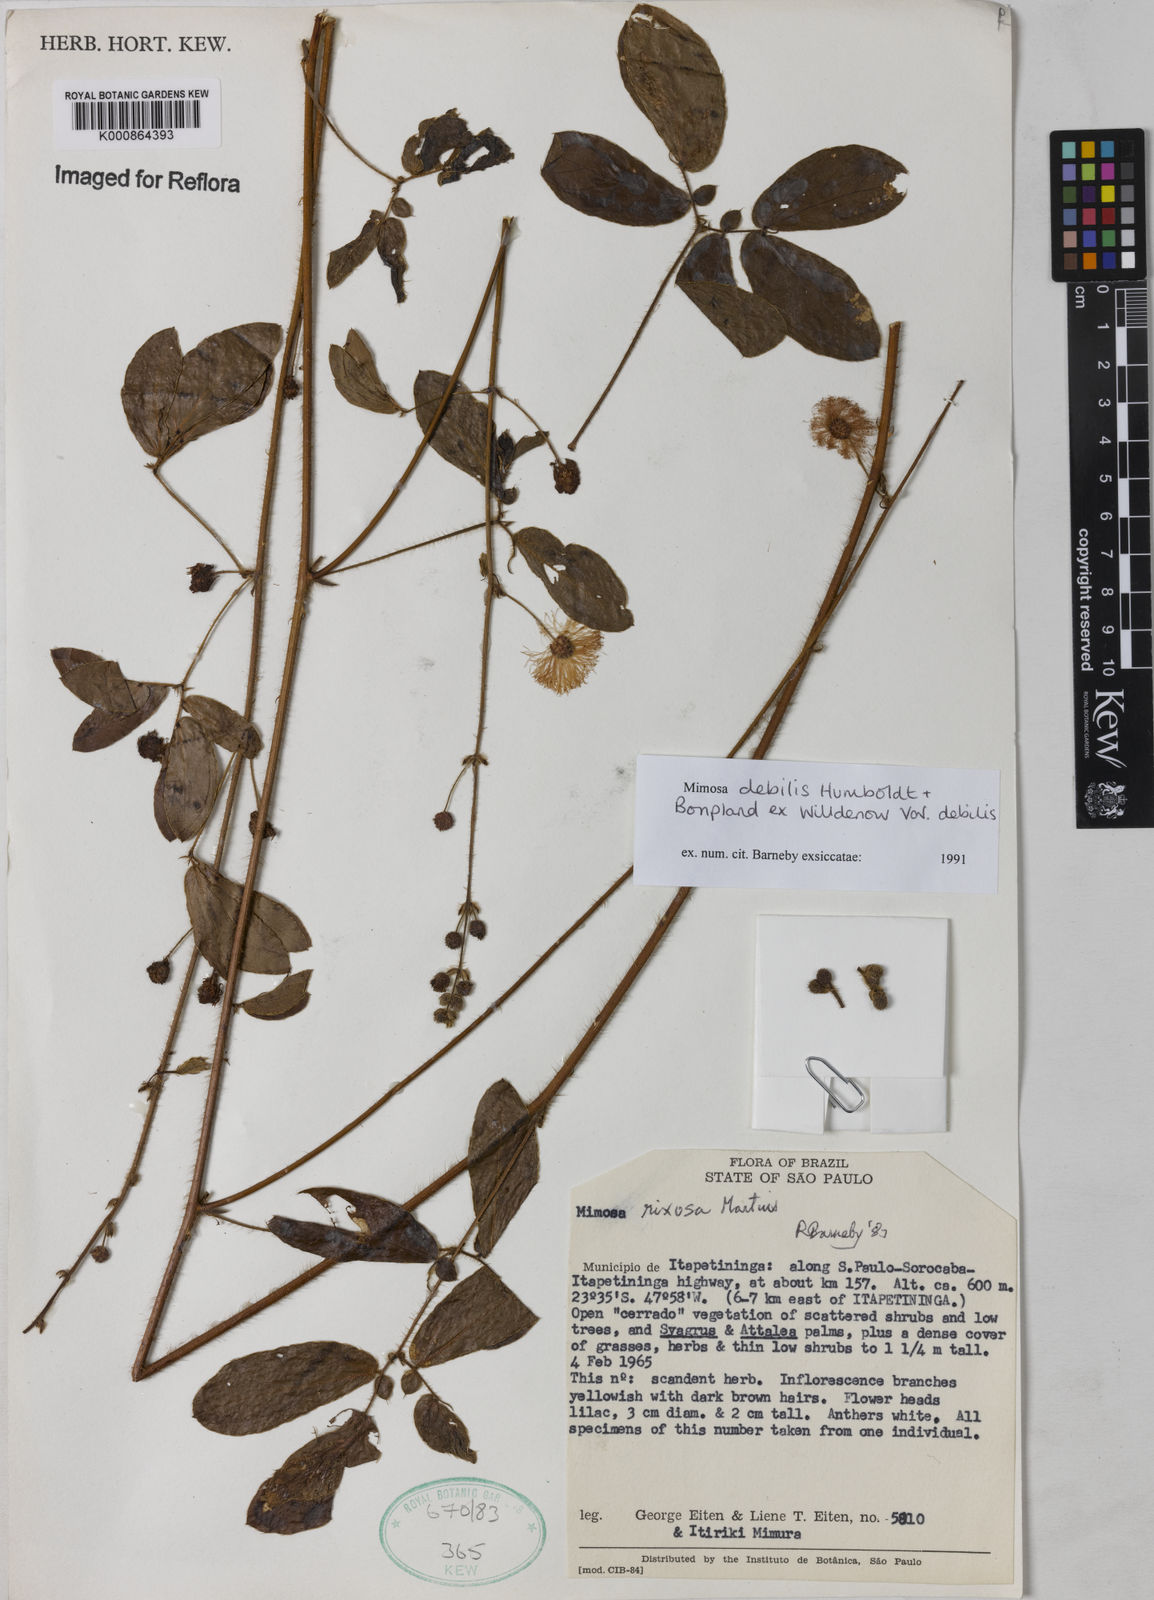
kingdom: Plantae
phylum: Tracheophyta
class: Magnoliopsida
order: Fabales
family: Fabaceae
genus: Mimosa
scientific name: Mimosa debilis
